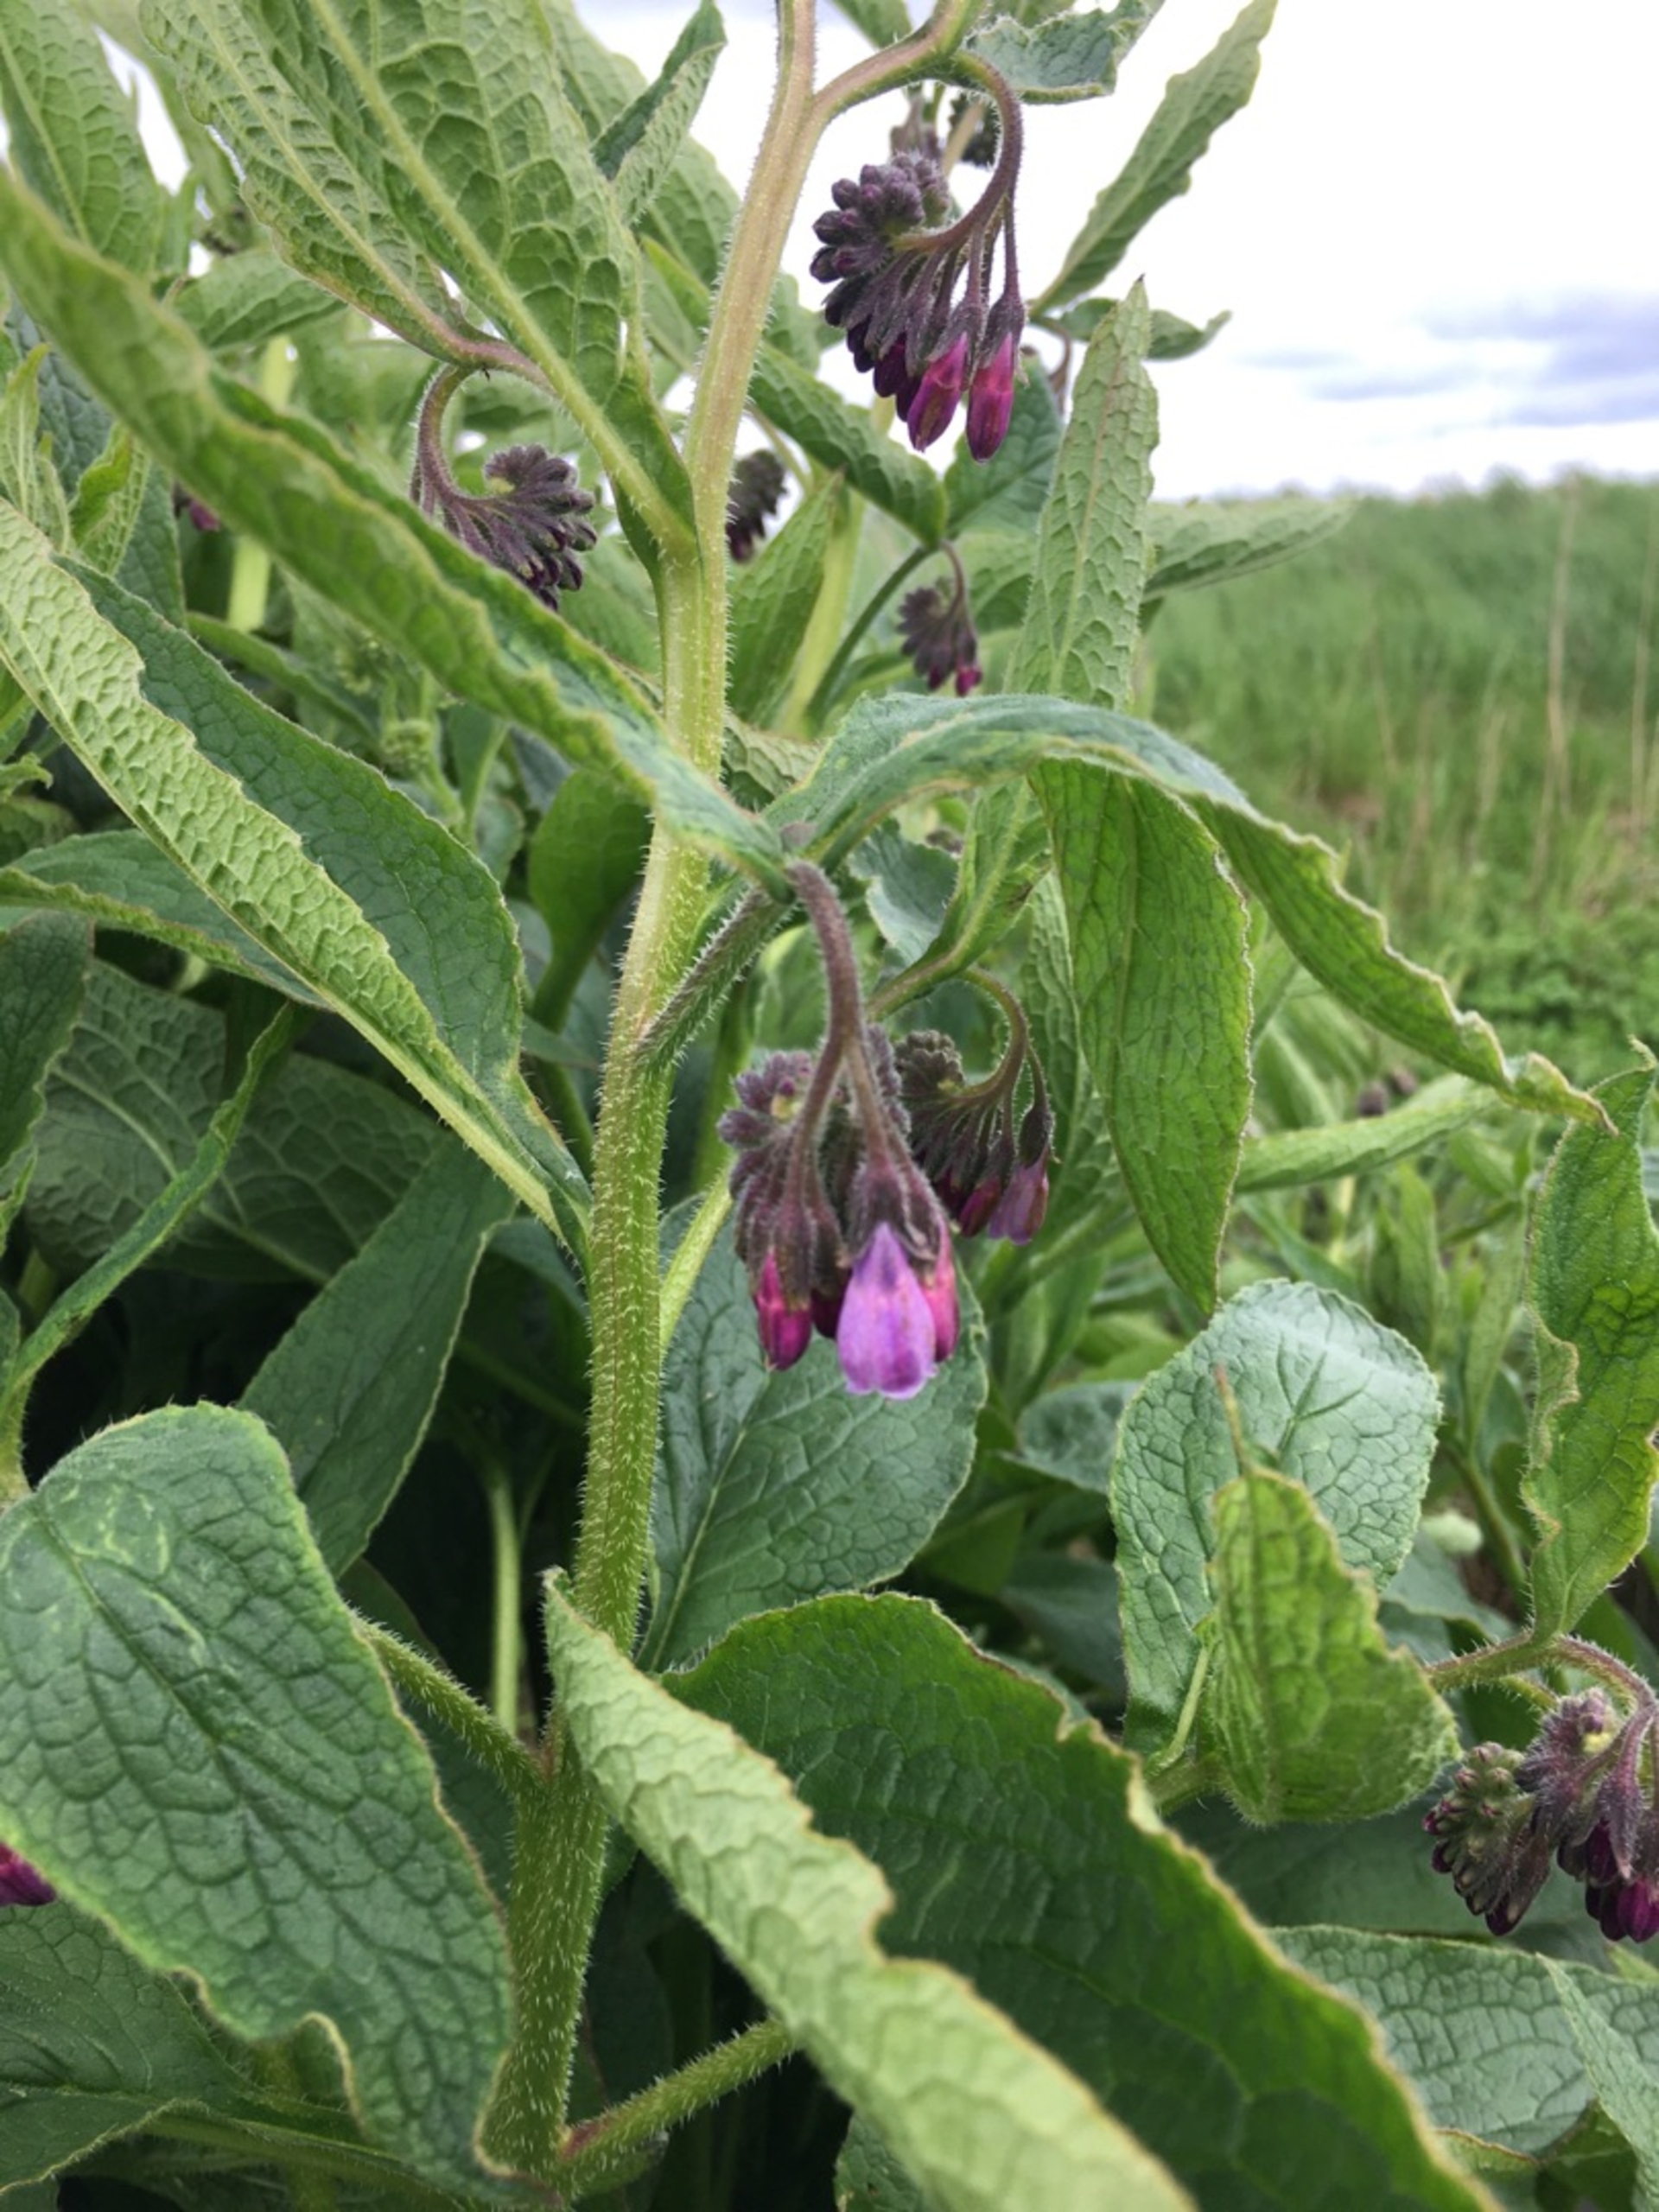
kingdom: Plantae
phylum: Tracheophyta
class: Magnoliopsida
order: Boraginales
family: Boraginaceae
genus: Symphytum
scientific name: Symphytum uplandicum
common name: Foder-kulsukker
